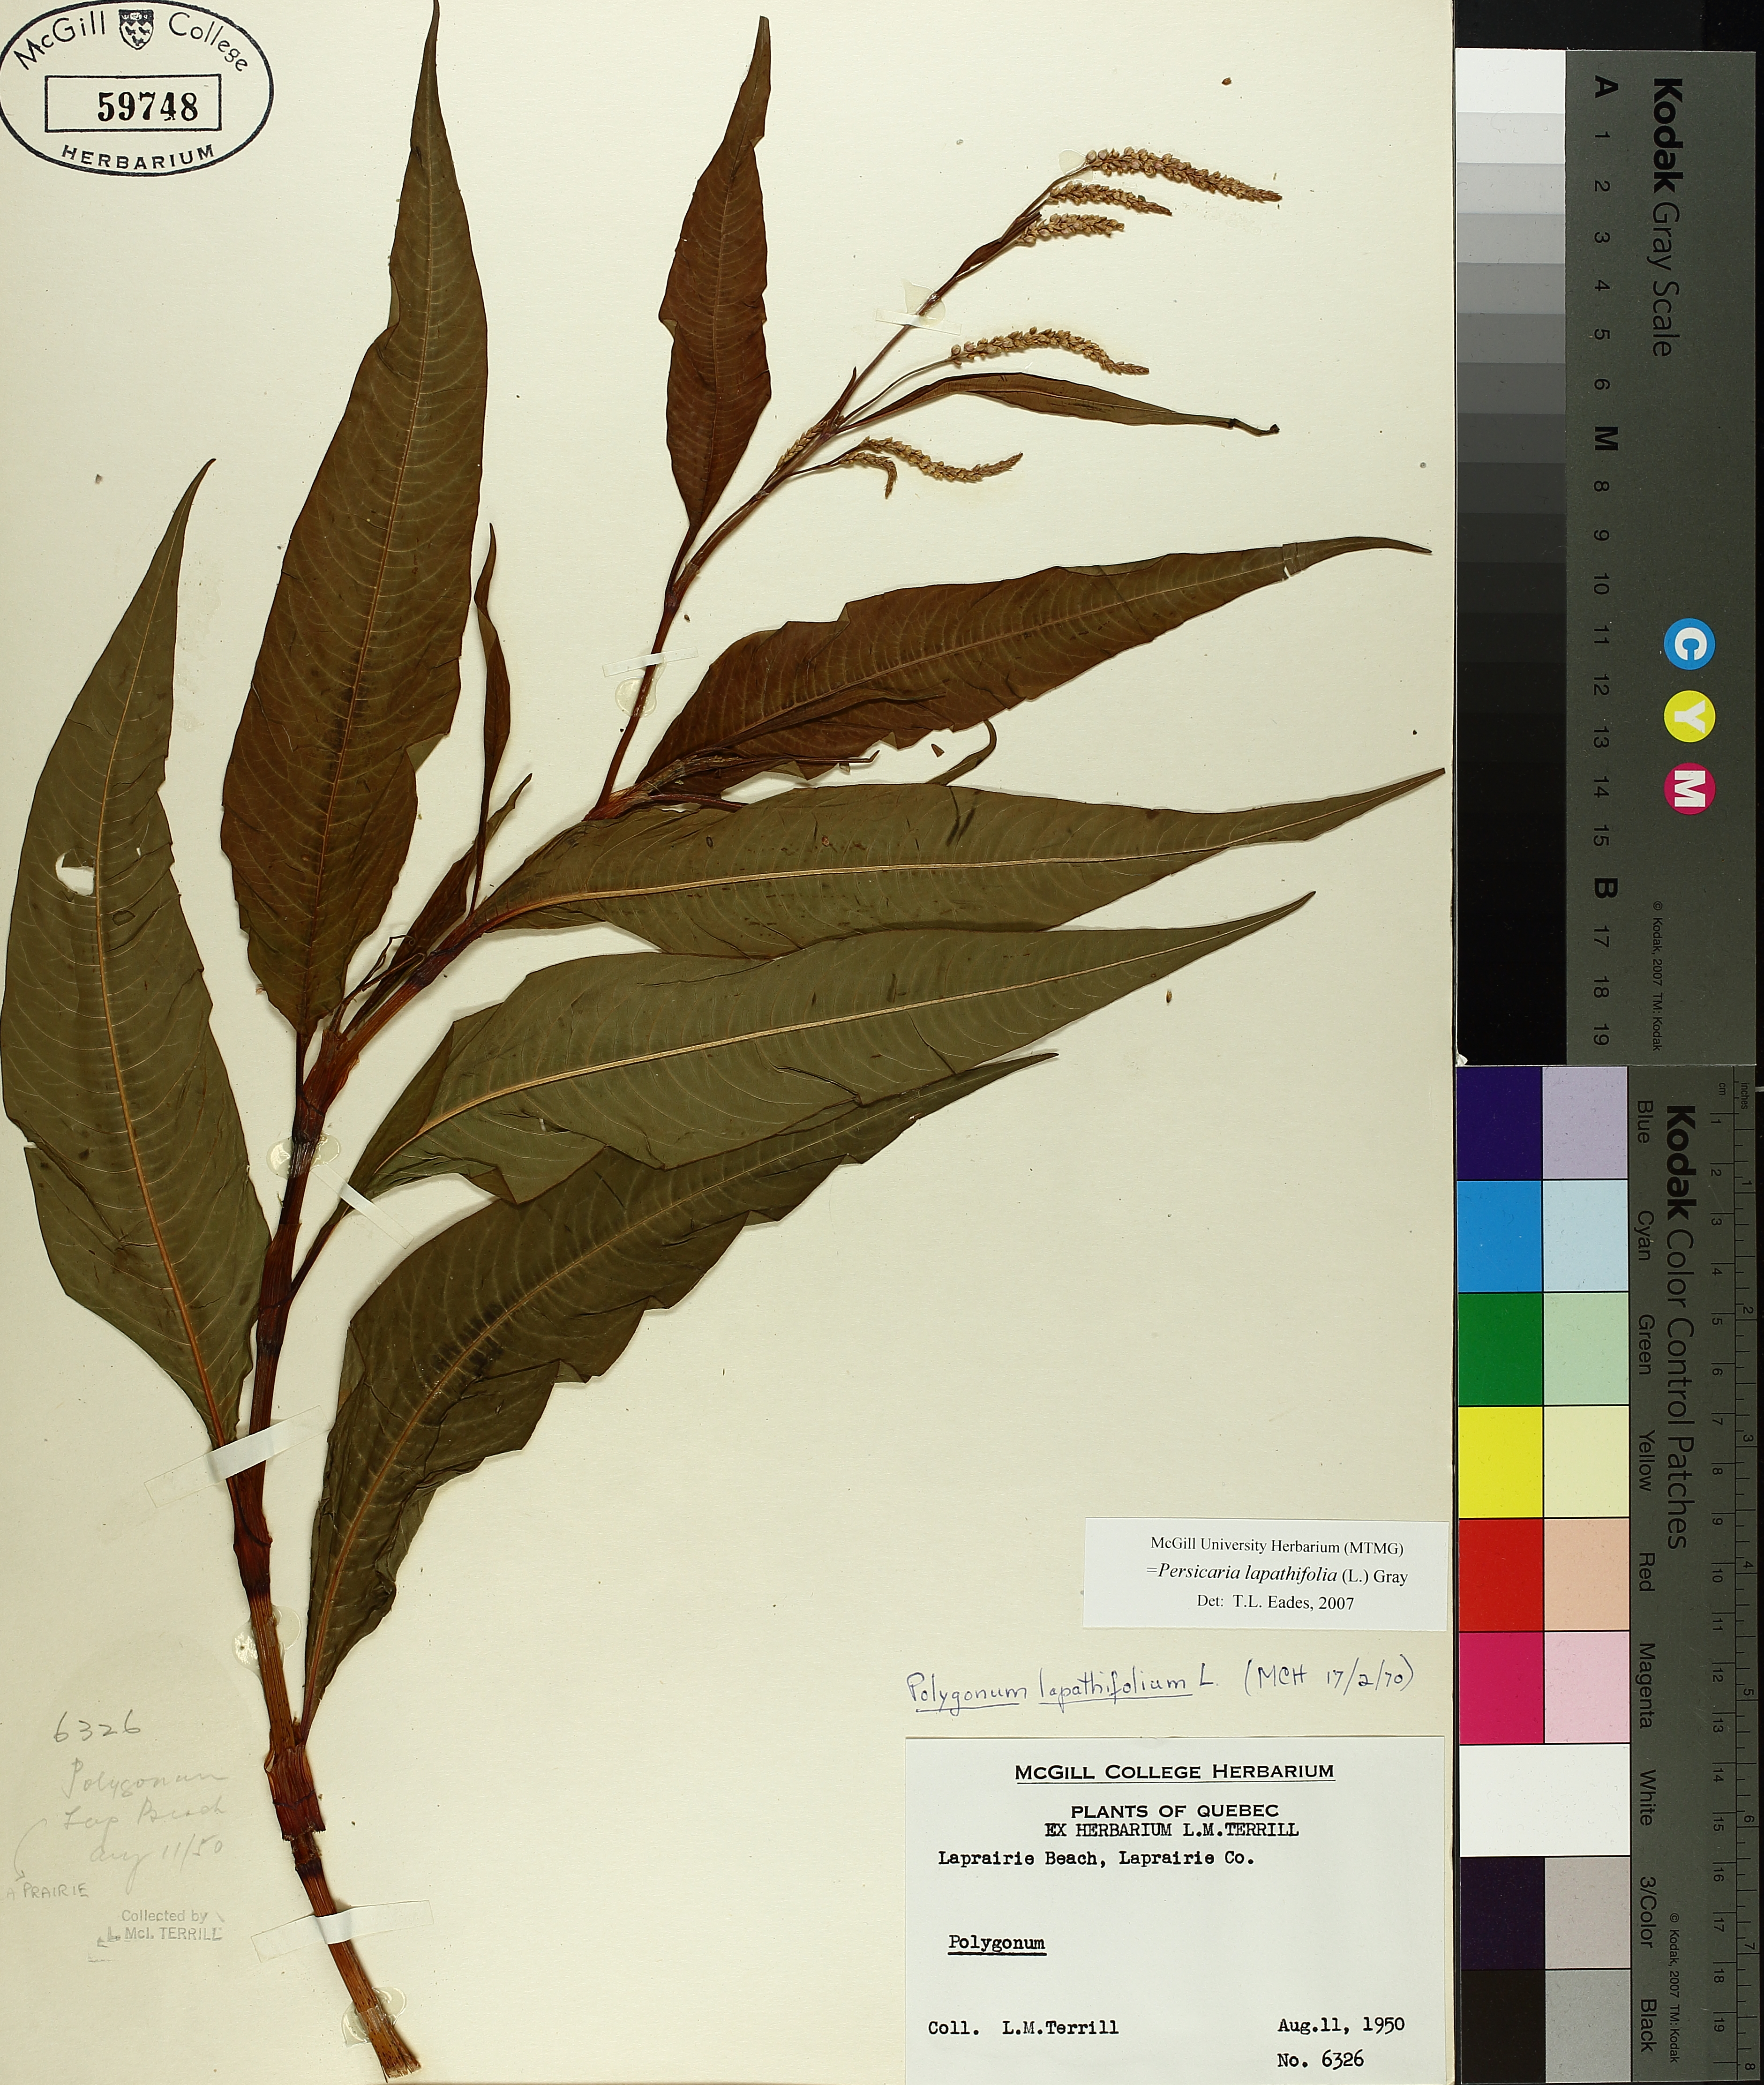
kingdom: Plantae
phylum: Tracheophyta
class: Magnoliopsida
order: Caryophyllales
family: Polygonaceae
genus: Persicaria
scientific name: Persicaria lapathifolia
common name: Curlytop knotweed
